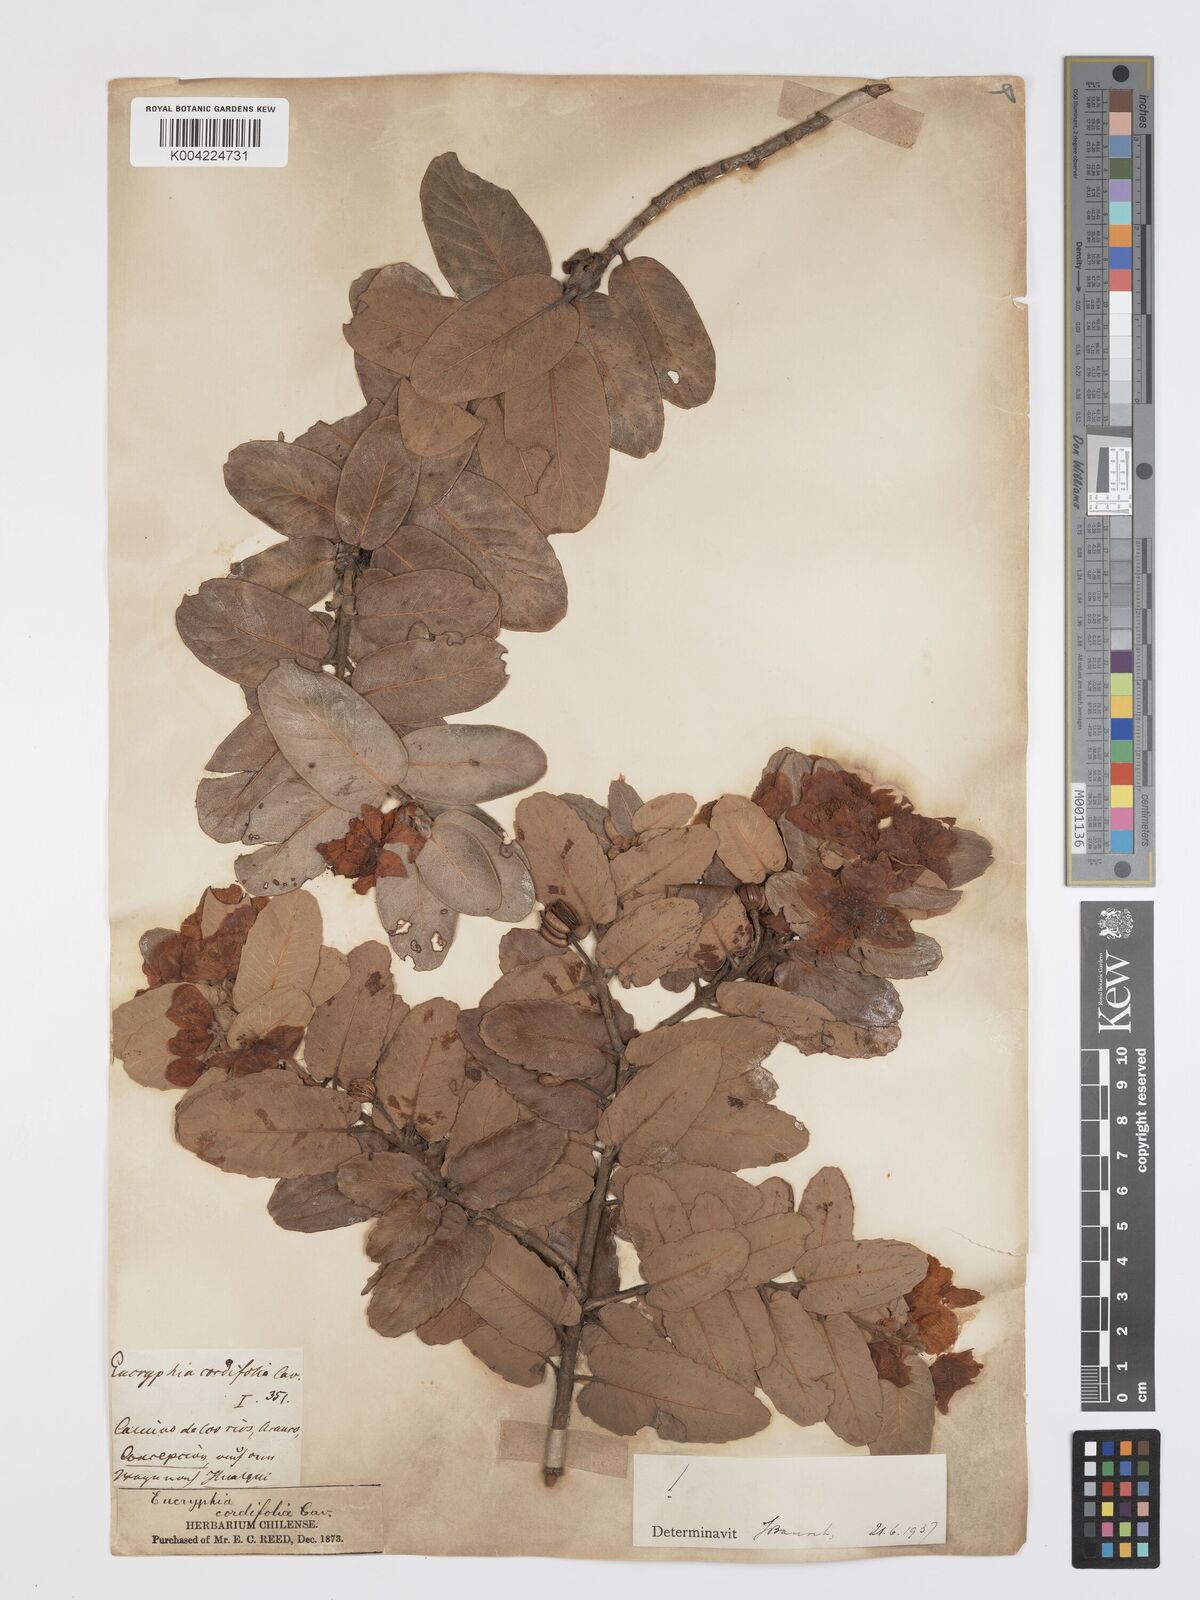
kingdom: Plantae
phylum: Tracheophyta
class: Magnoliopsida
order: Oxalidales
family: Cunoniaceae
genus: Eucryphia
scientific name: Eucryphia cordifolia
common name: Ulmo
